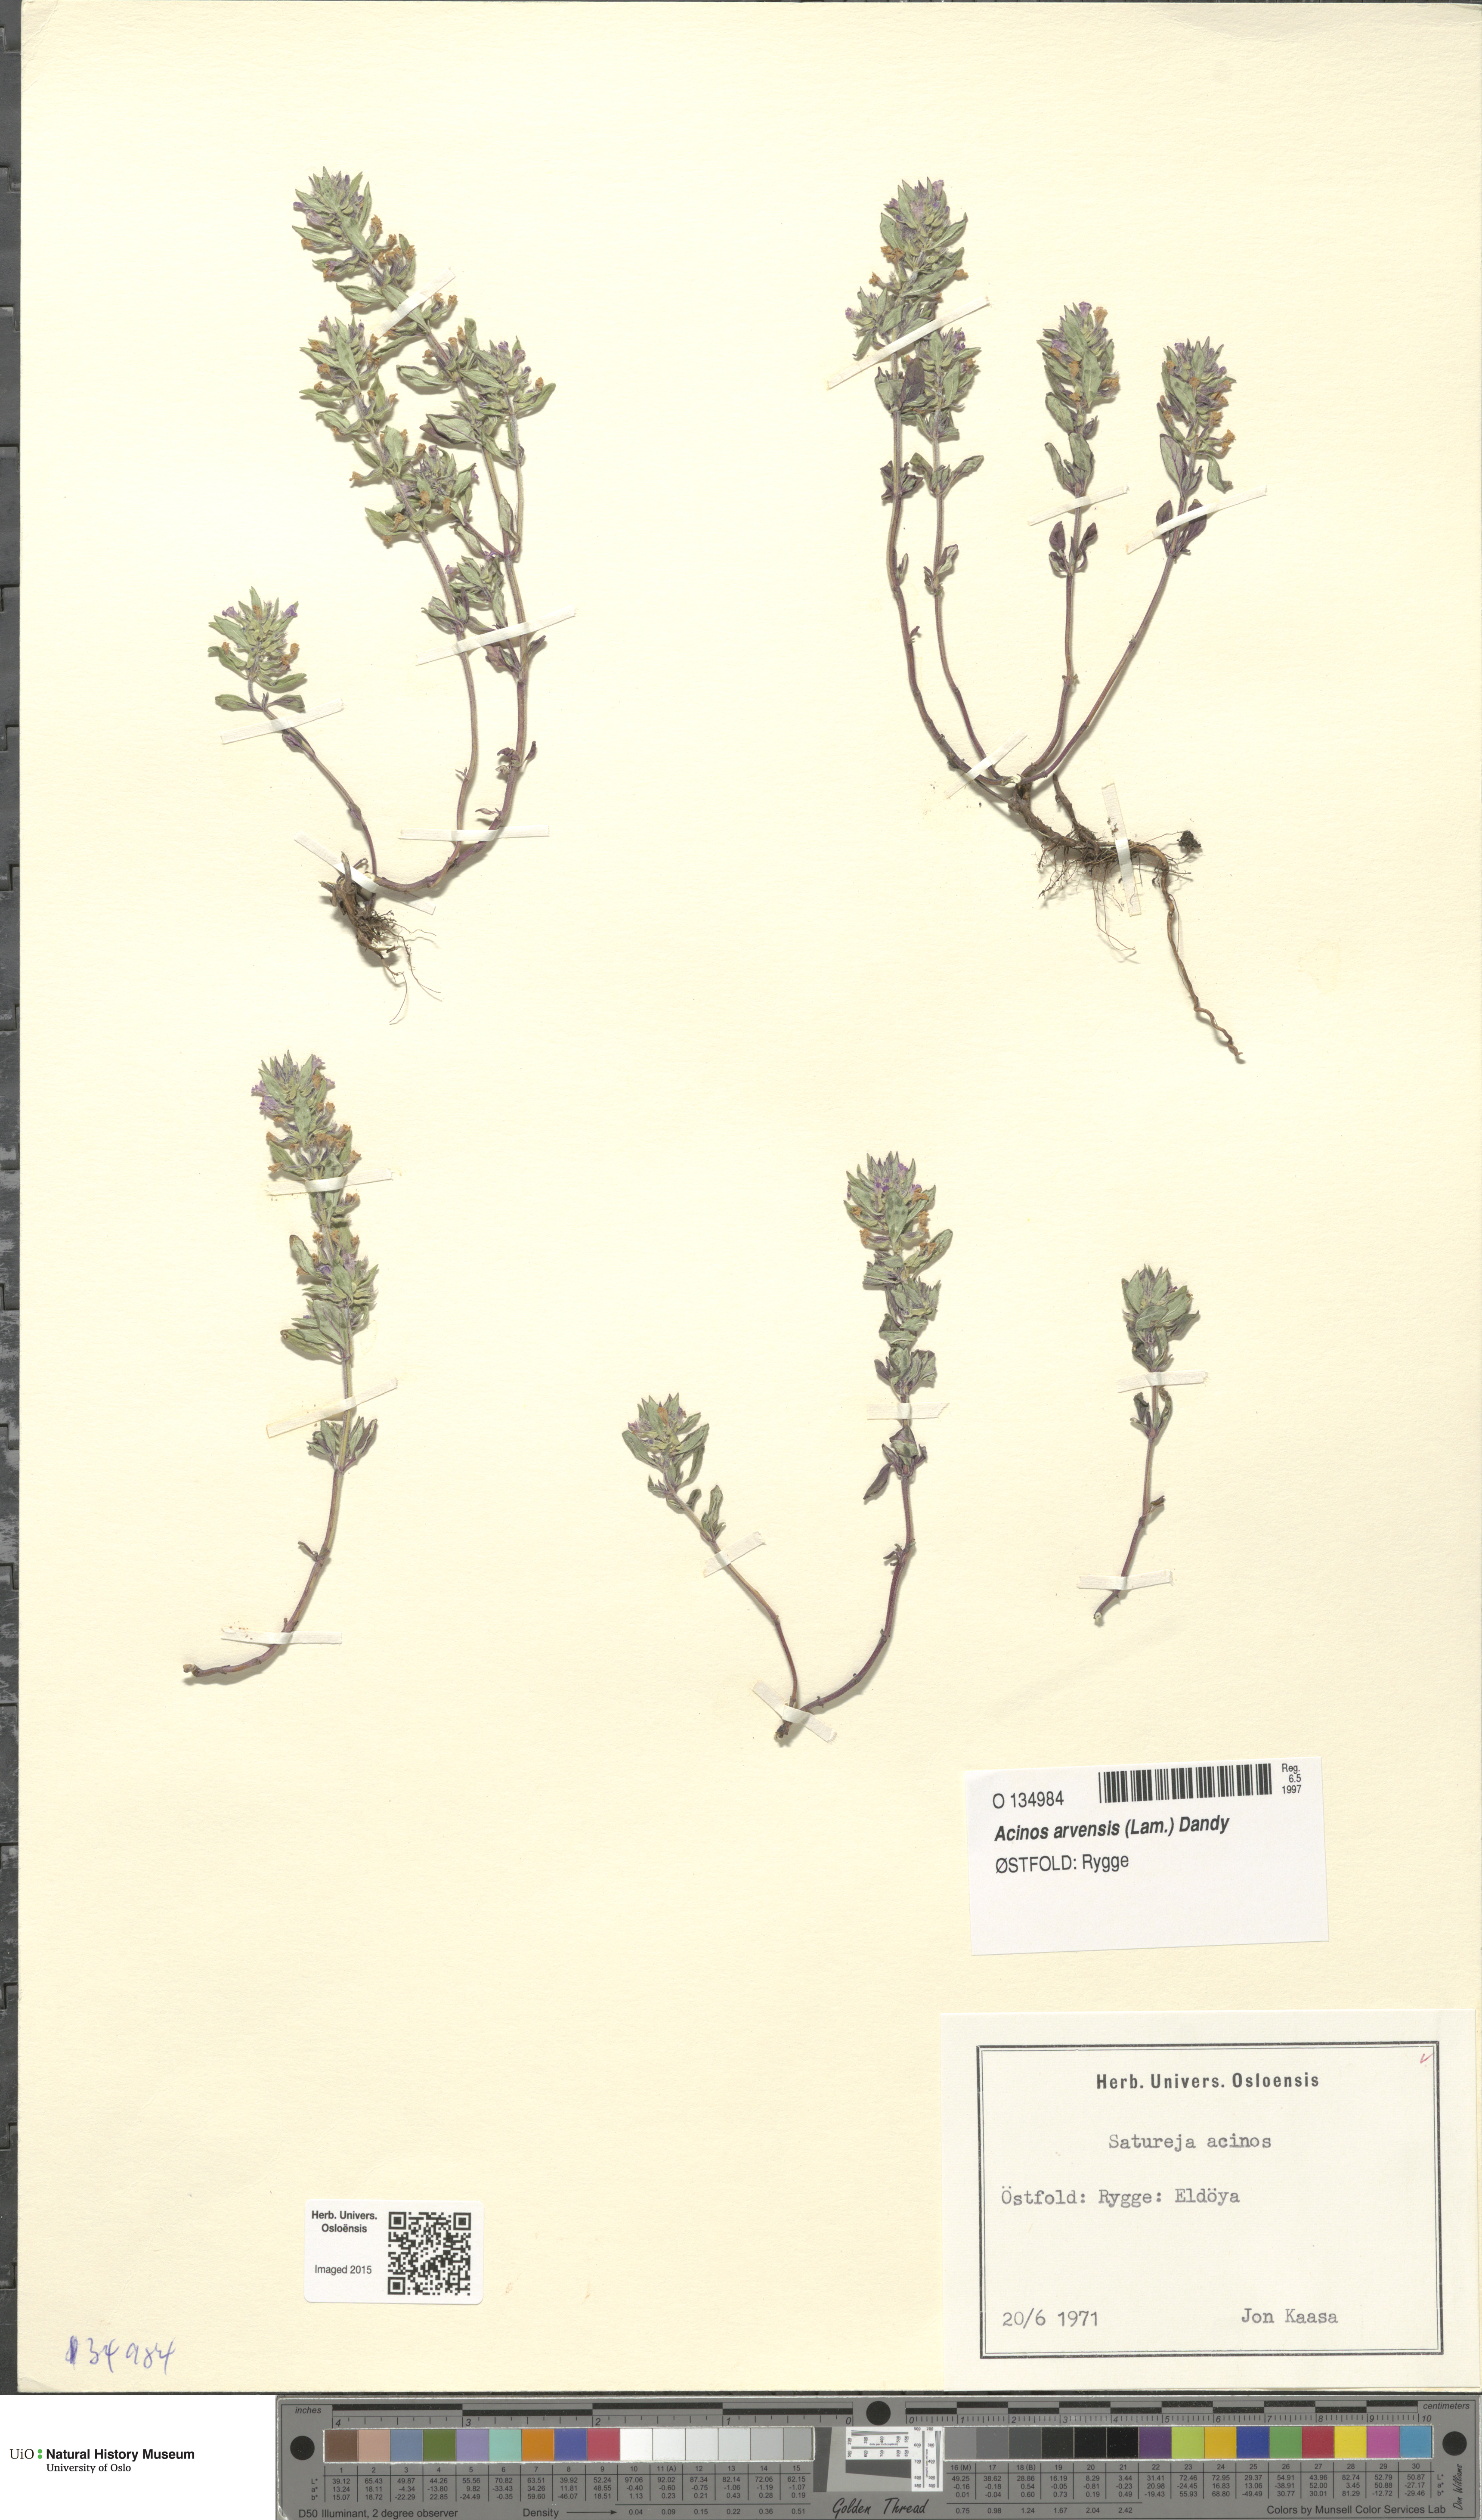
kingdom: Plantae
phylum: Tracheophyta
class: Magnoliopsida
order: Lamiales
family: Lamiaceae
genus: Clinopodium
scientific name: Clinopodium acinos
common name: Basil thyme
